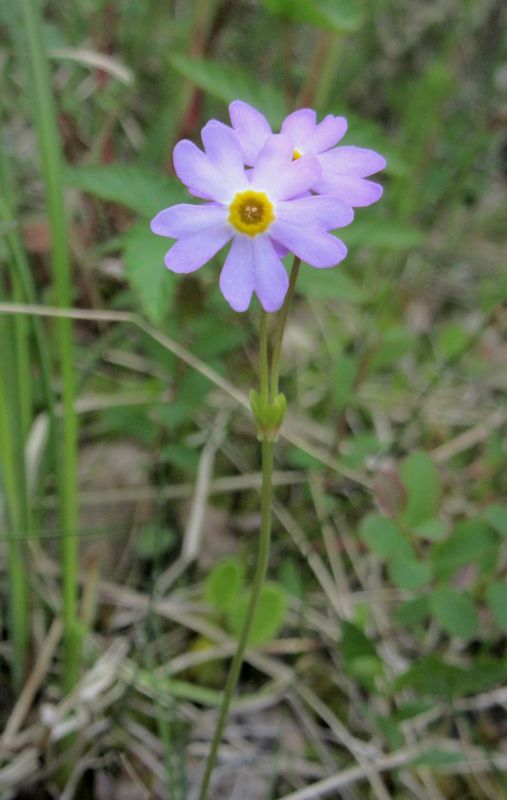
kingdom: Plantae
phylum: Tracheophyta
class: Magnoliopsida
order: Ericales
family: Primulaceae
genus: Primula
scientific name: Primula nutans
